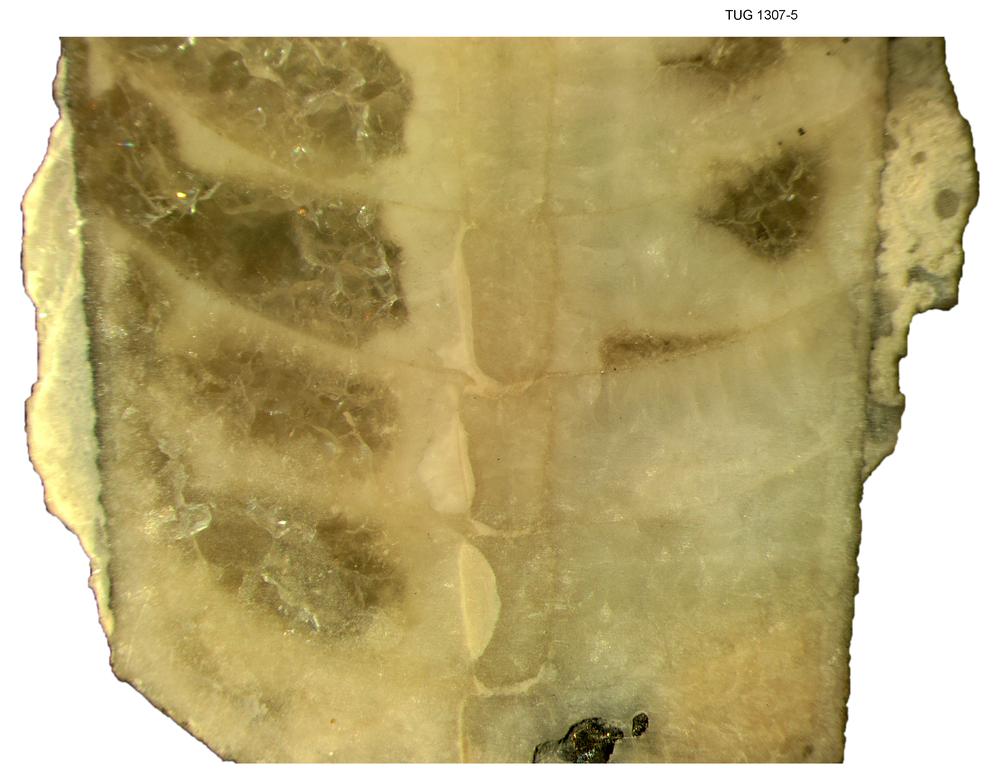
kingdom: Animalia
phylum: Mollusca
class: Cephalopoda
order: Orthocerida
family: Proteoceratidae
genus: Isorthoceras
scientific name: Isorthoceras cavi
